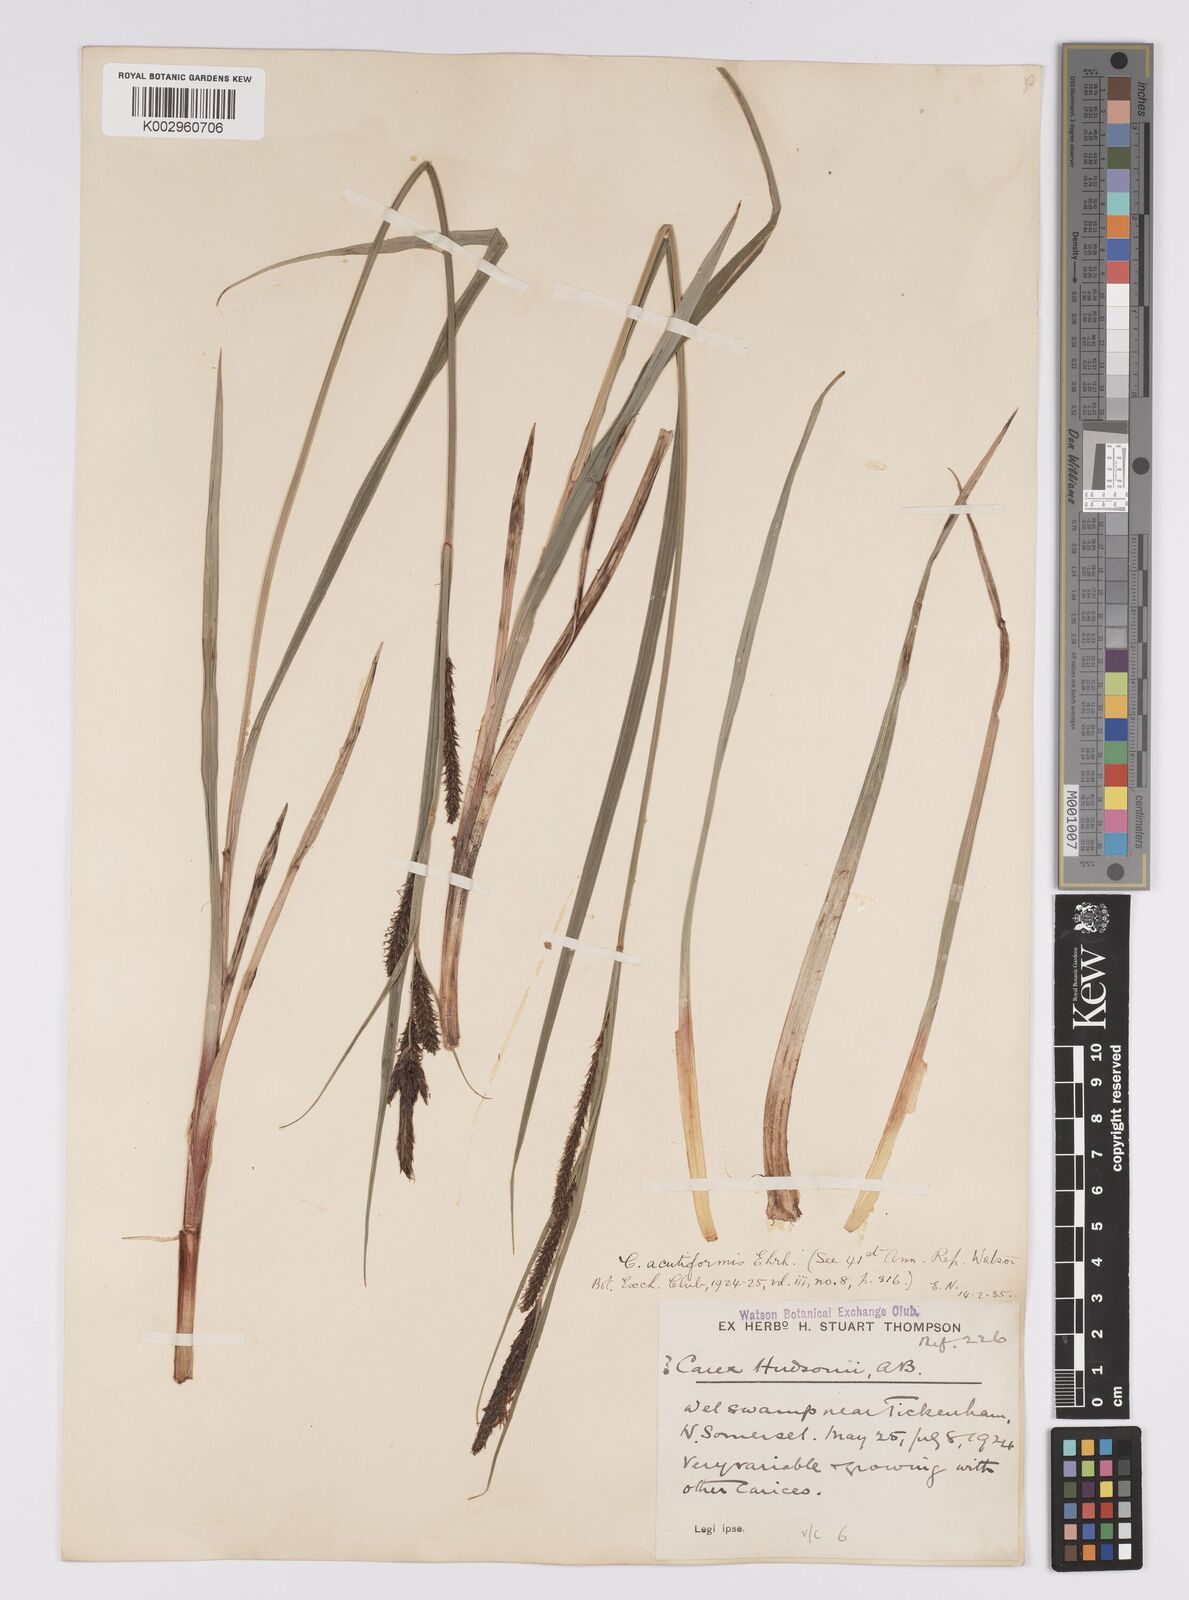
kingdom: Plantae
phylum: Tracheophyta
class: Liliopsida
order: Poales
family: Cyperaceae
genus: Carex
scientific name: Carex acutiformis
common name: Lesser pond-sedge
